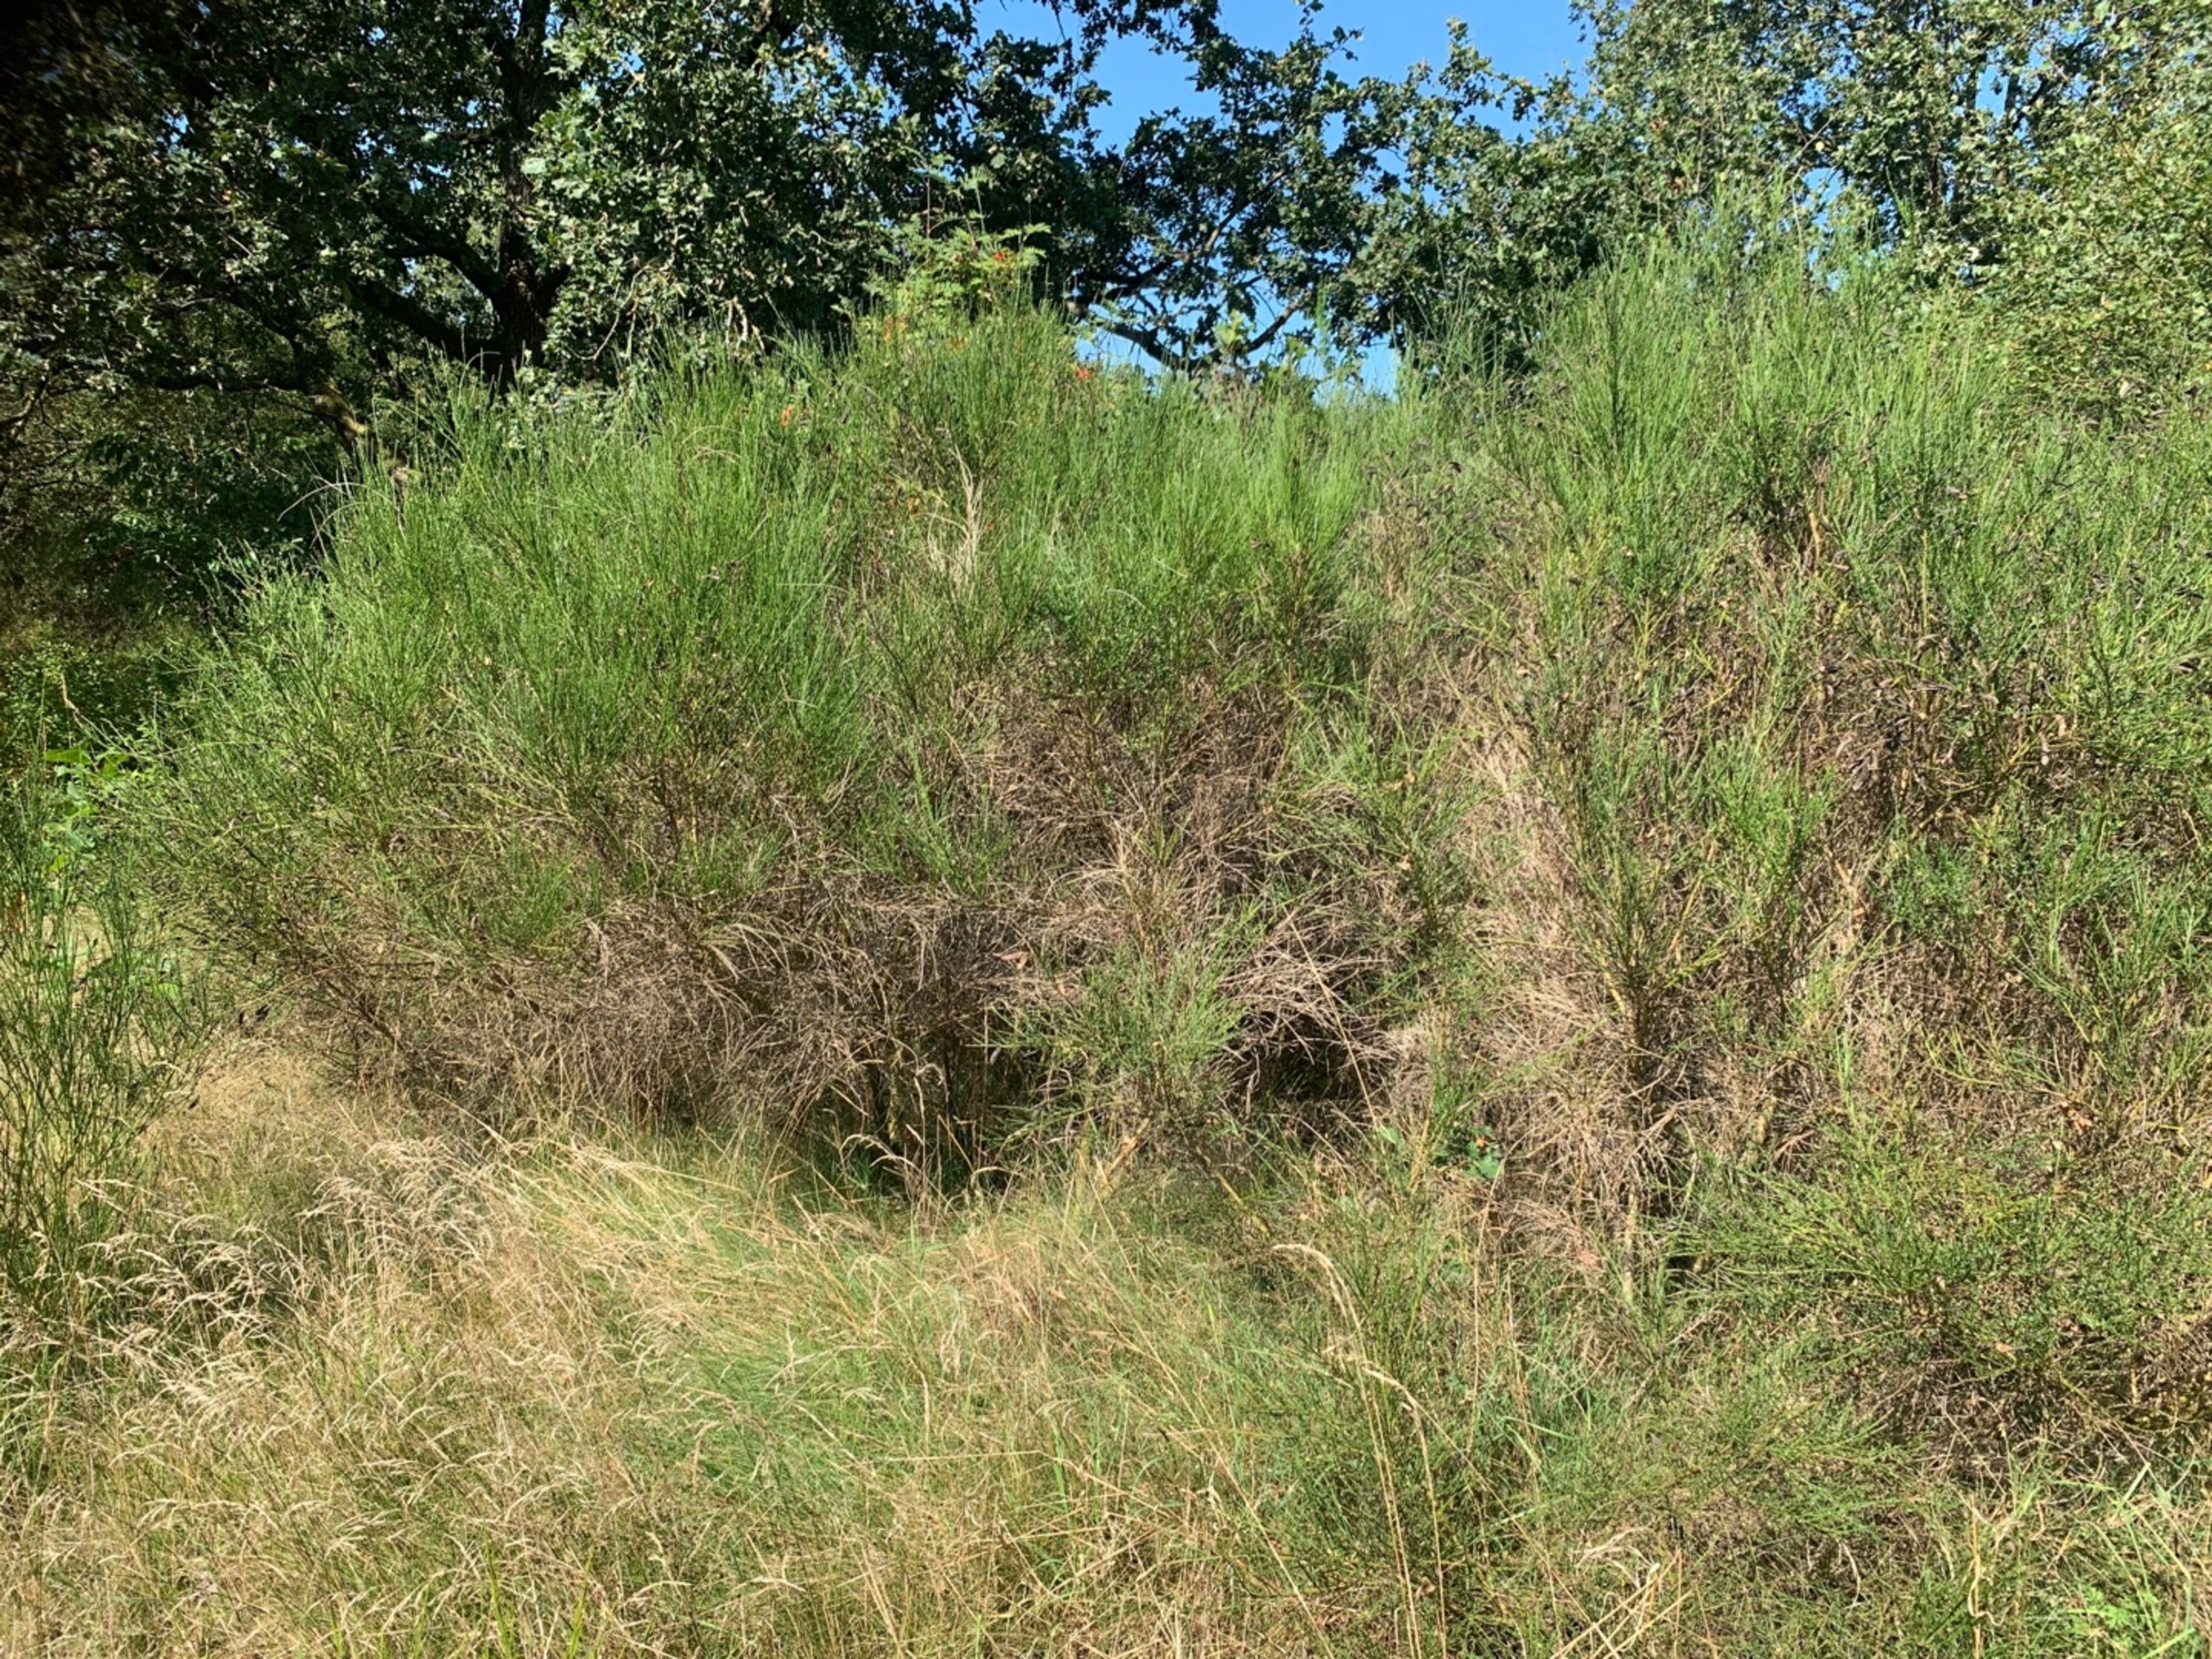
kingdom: Plantae
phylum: Tracheophyta
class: Magnoliopsida
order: Fabales
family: Fabaceae
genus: Cytisus
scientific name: Cytisus scoparius
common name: Almindelig gyvel (underart)
